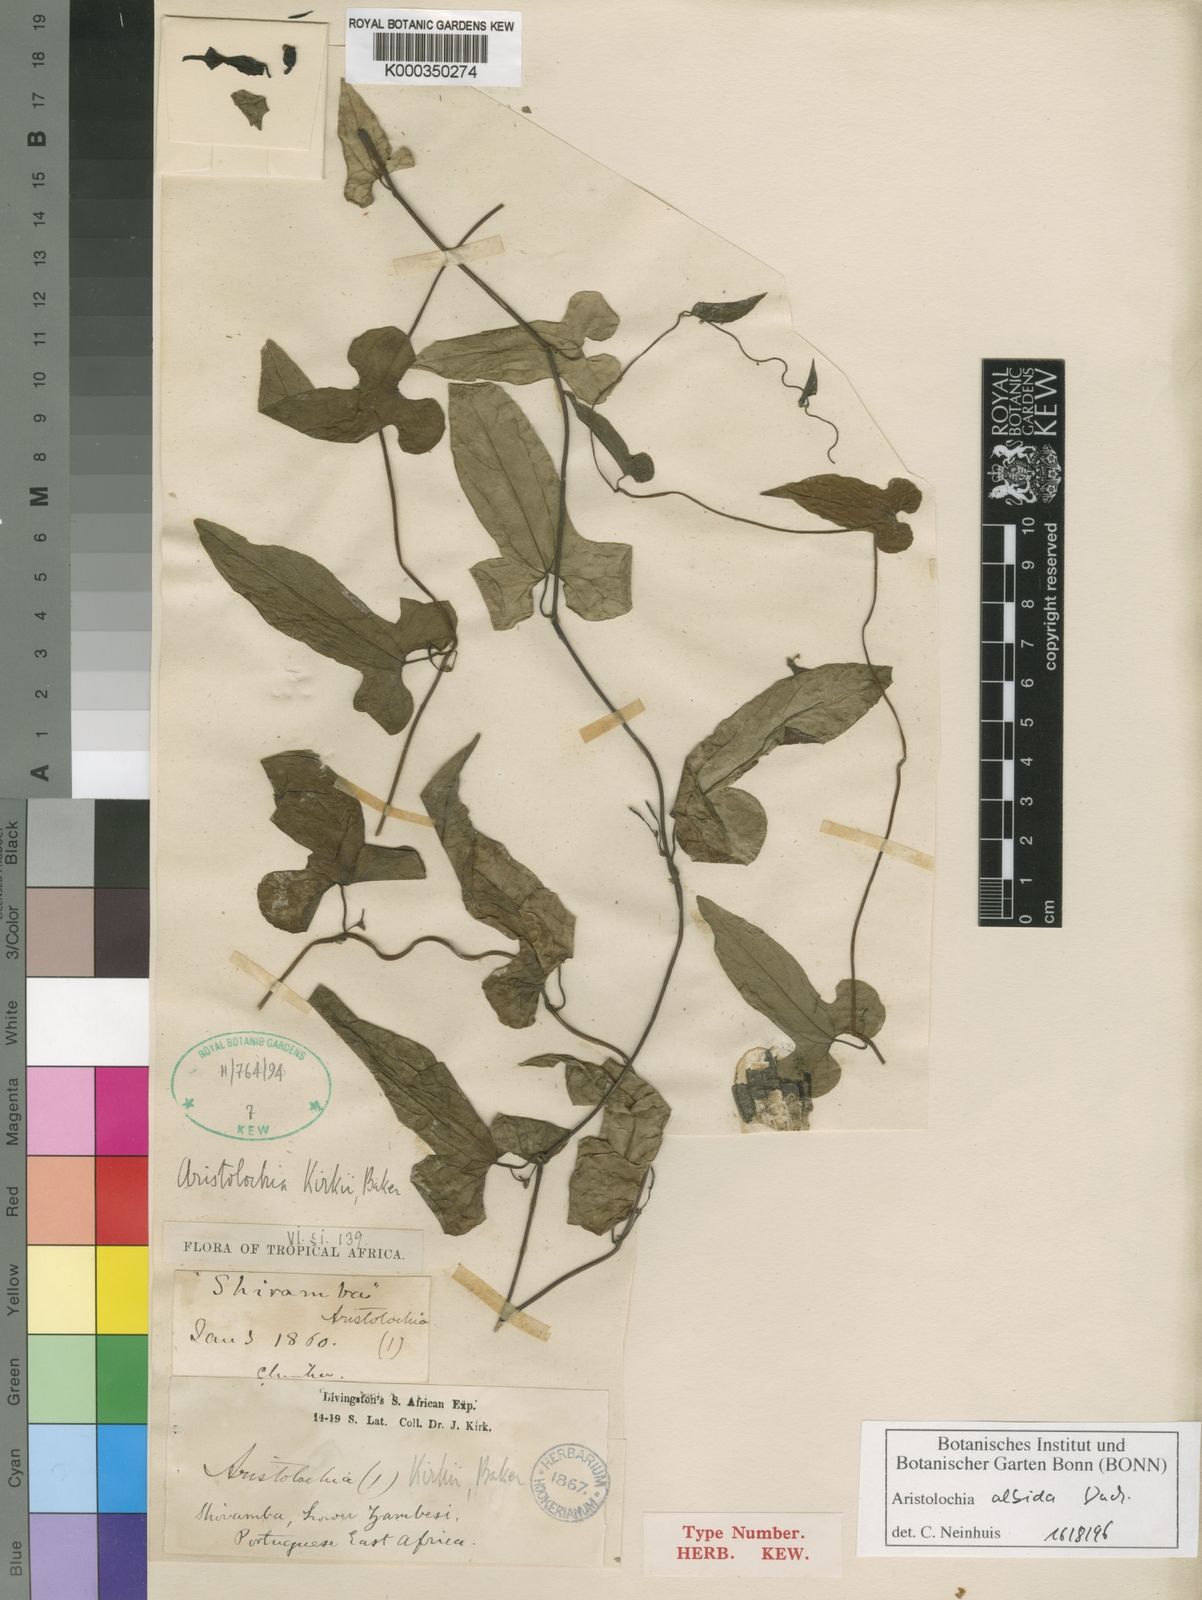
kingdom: Plantae
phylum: Tracheophyta
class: Magnoliopsida
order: Piperales
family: Aristolochiaceae
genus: Aristolochia
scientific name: Aristolochia albida
